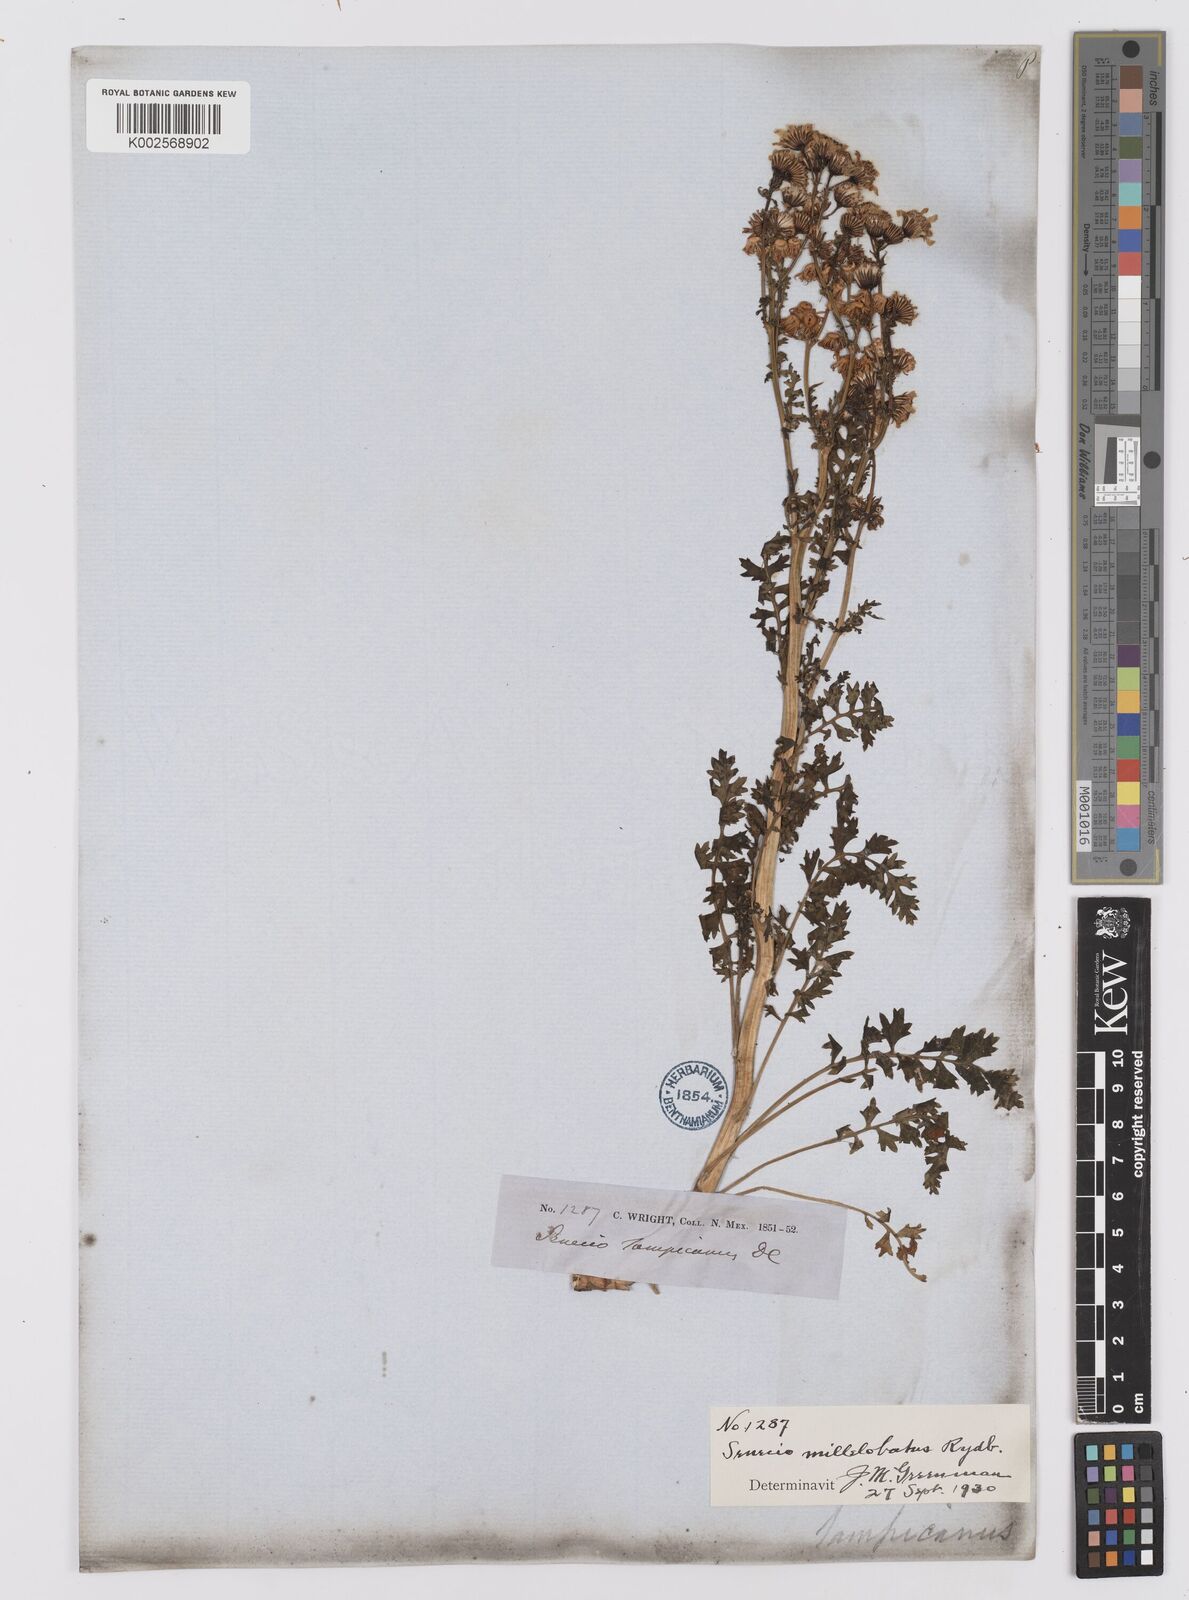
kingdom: Plantae
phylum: Tracheophyta
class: Magnoliopsida
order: Asterales
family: Asteraceae
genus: Packera
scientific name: Packera millelobata
